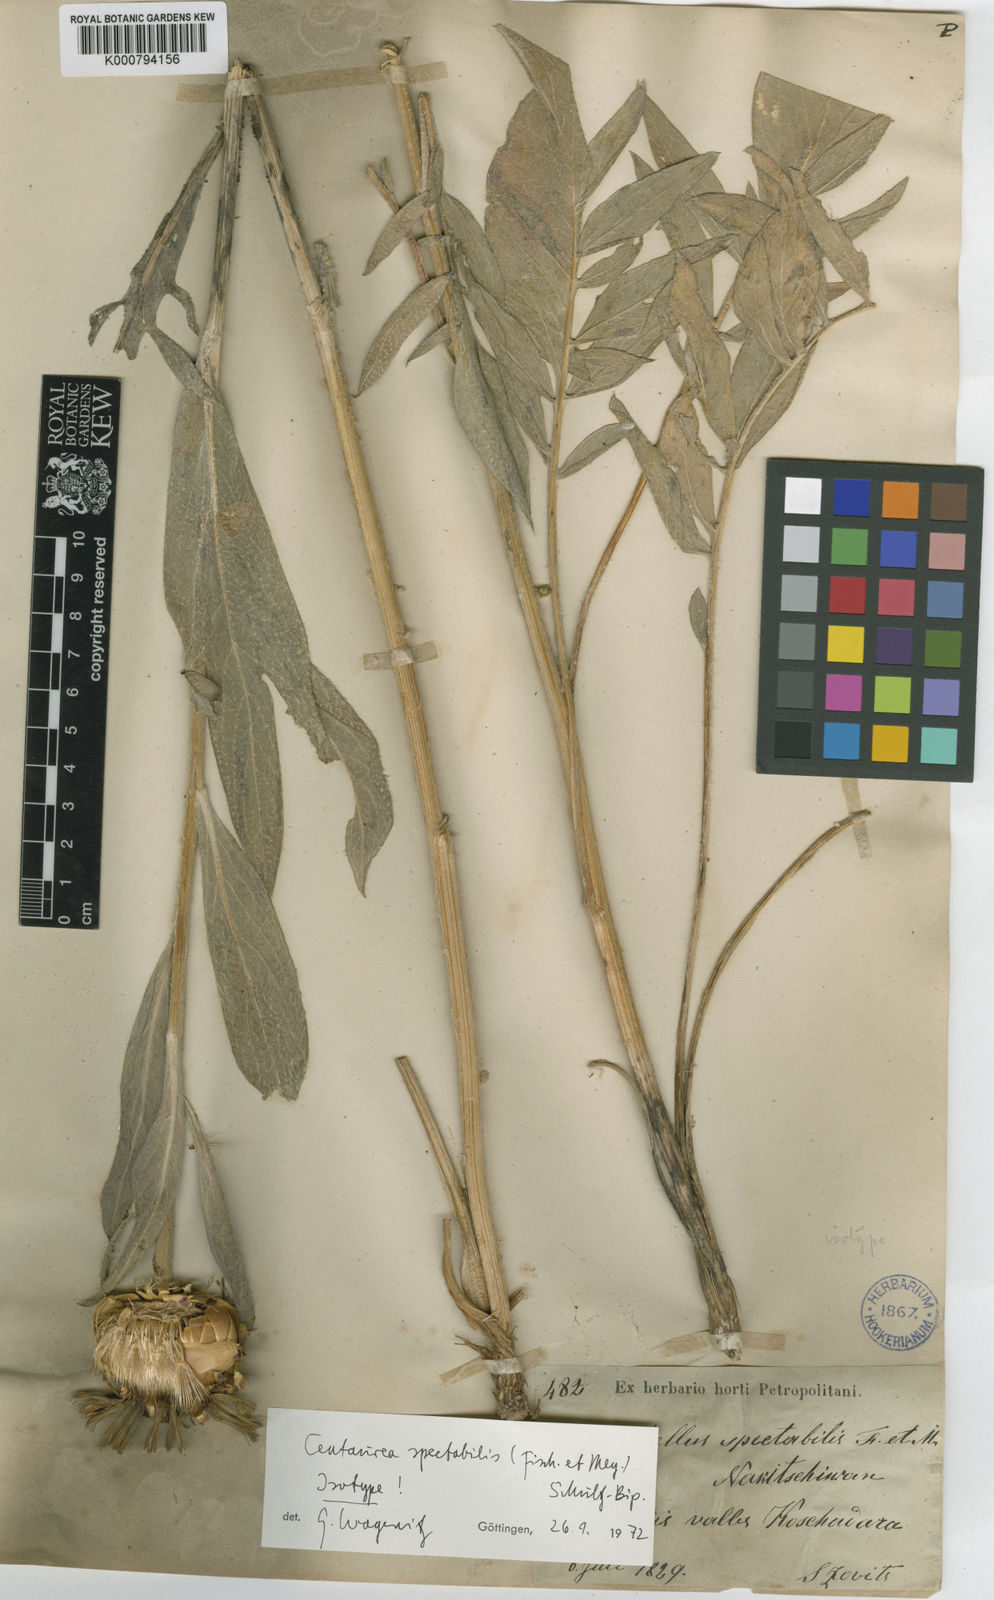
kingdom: Plantae
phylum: Tracheophyta
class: Magnoliopsida
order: Asterales
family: Asteraceae
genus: Centaurea
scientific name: Centaurea spectabilis
